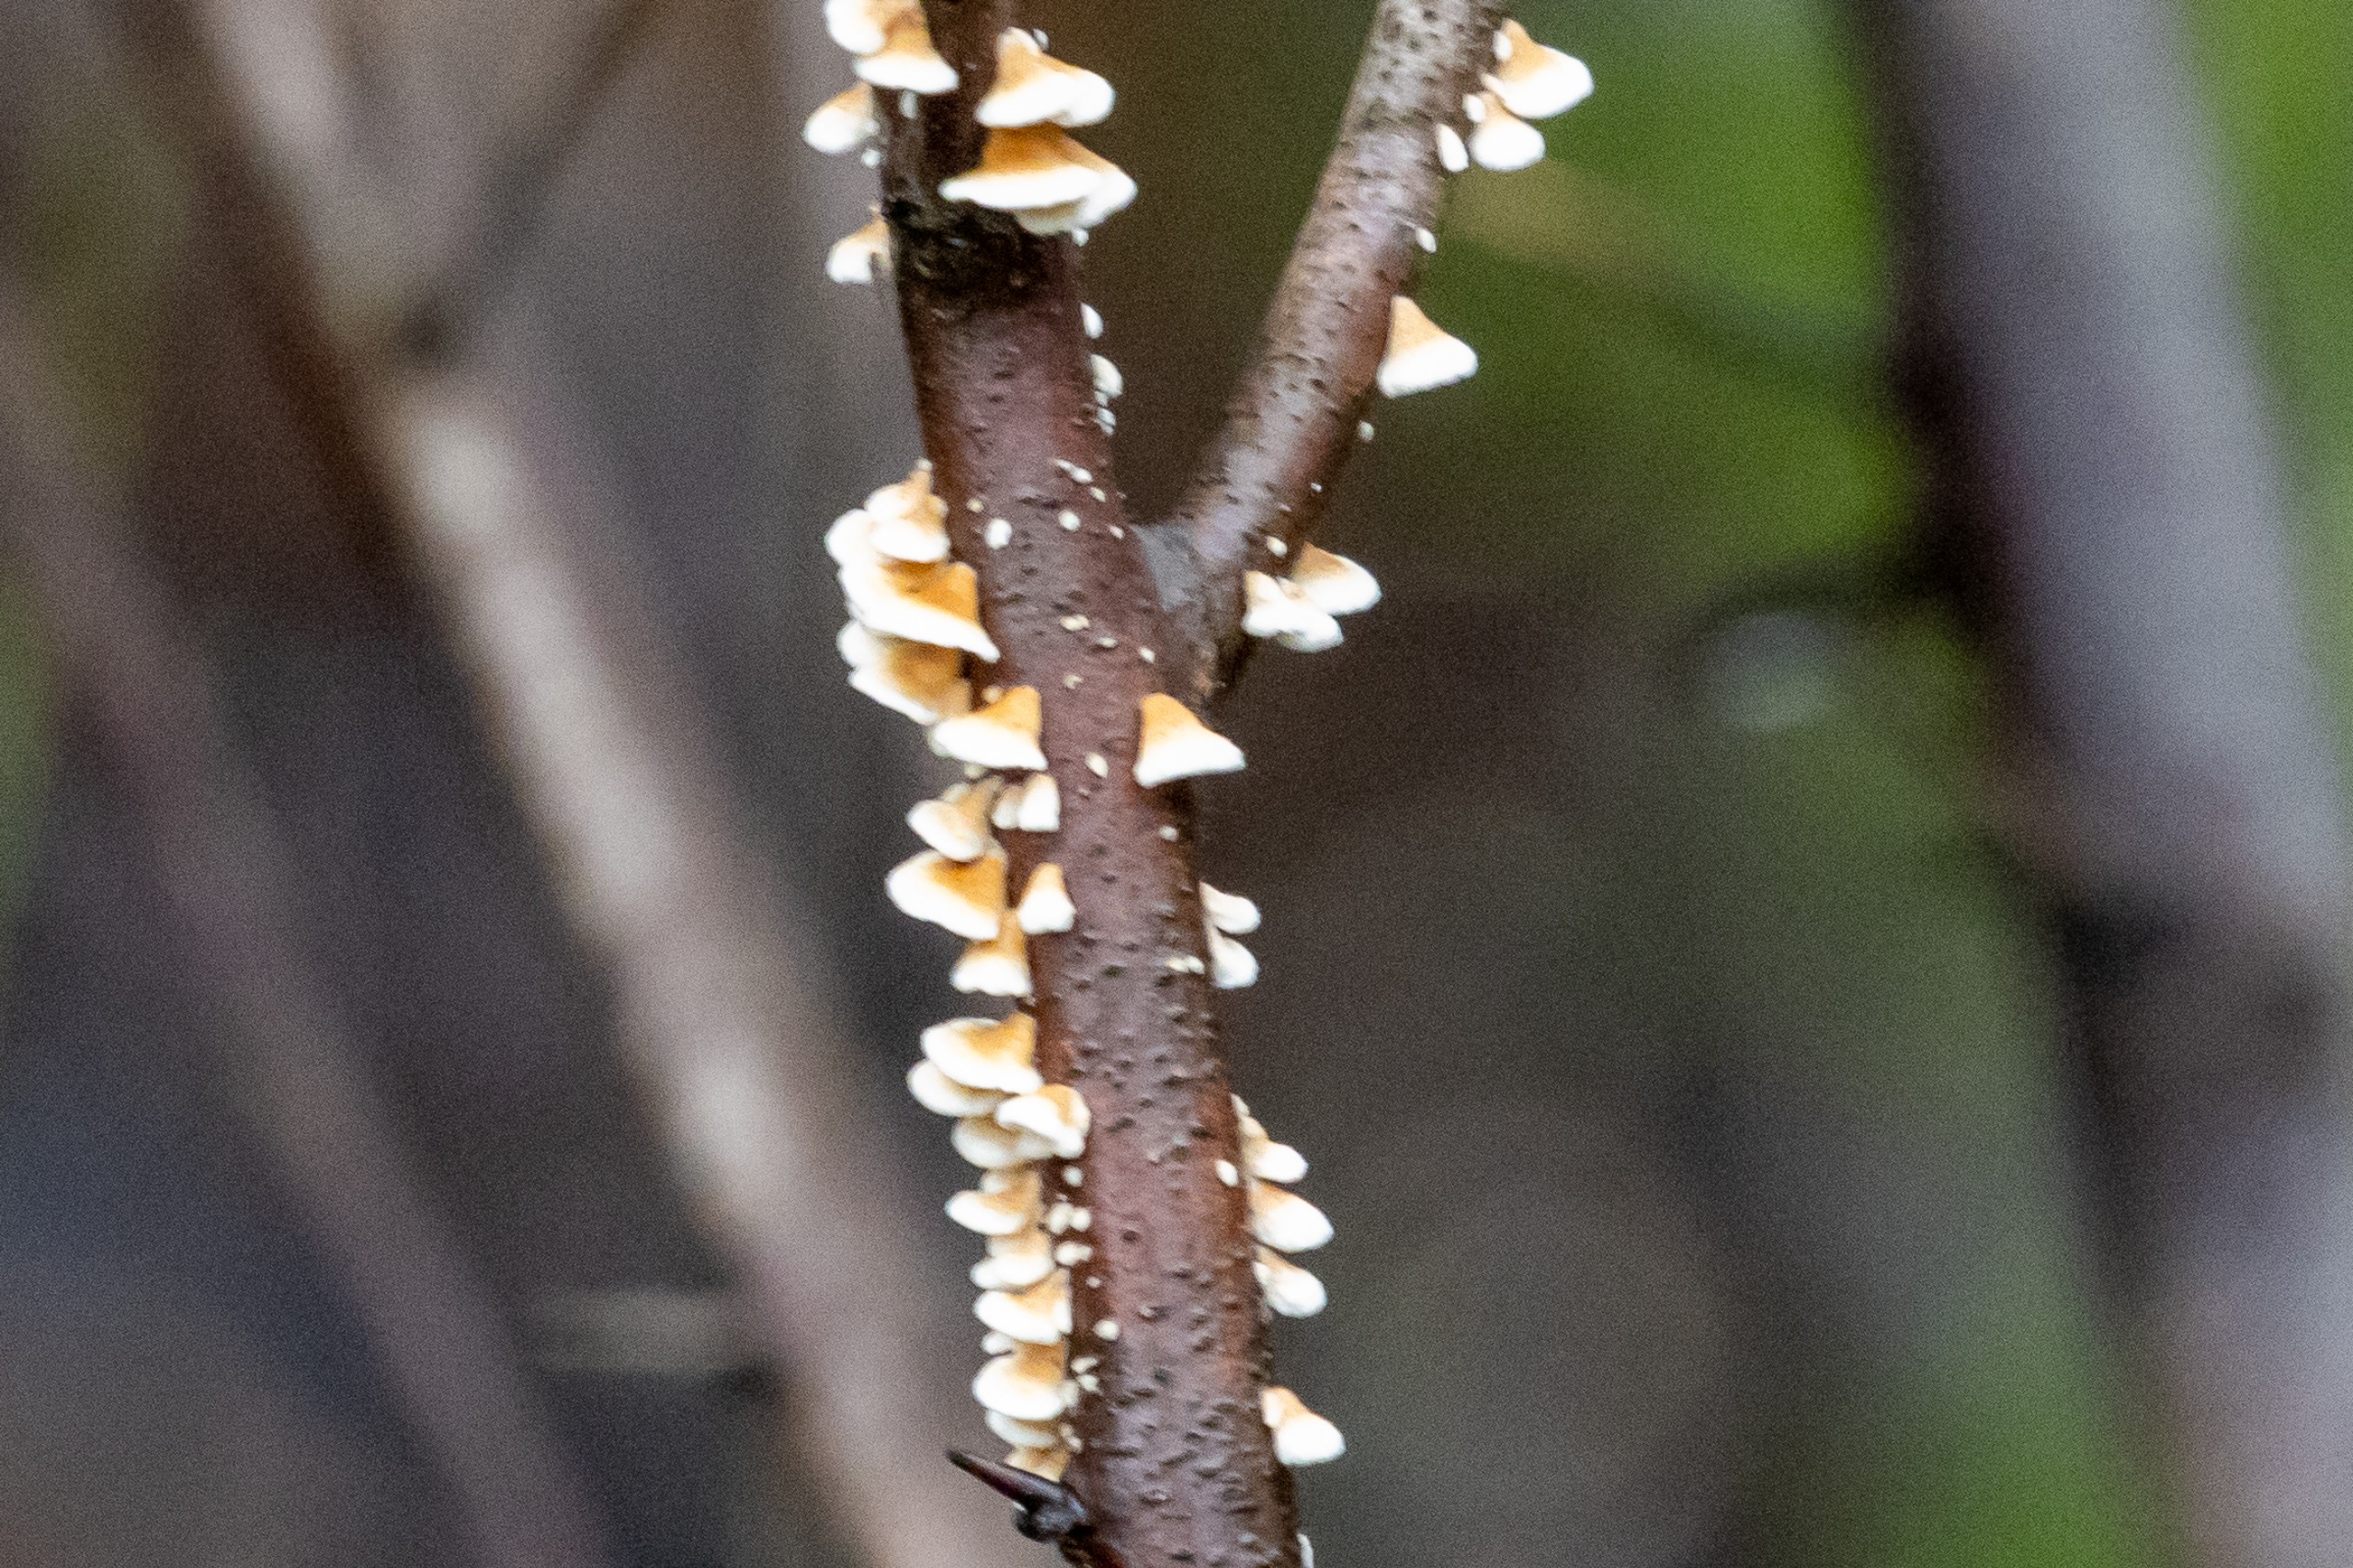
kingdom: Fungi
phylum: Basidiomycota
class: Agaricomycetes
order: Amylocorticiales
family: Amylocorticiaceae
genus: Plicaturopsis
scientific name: Plicaturopsis crispa
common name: Krusblad
